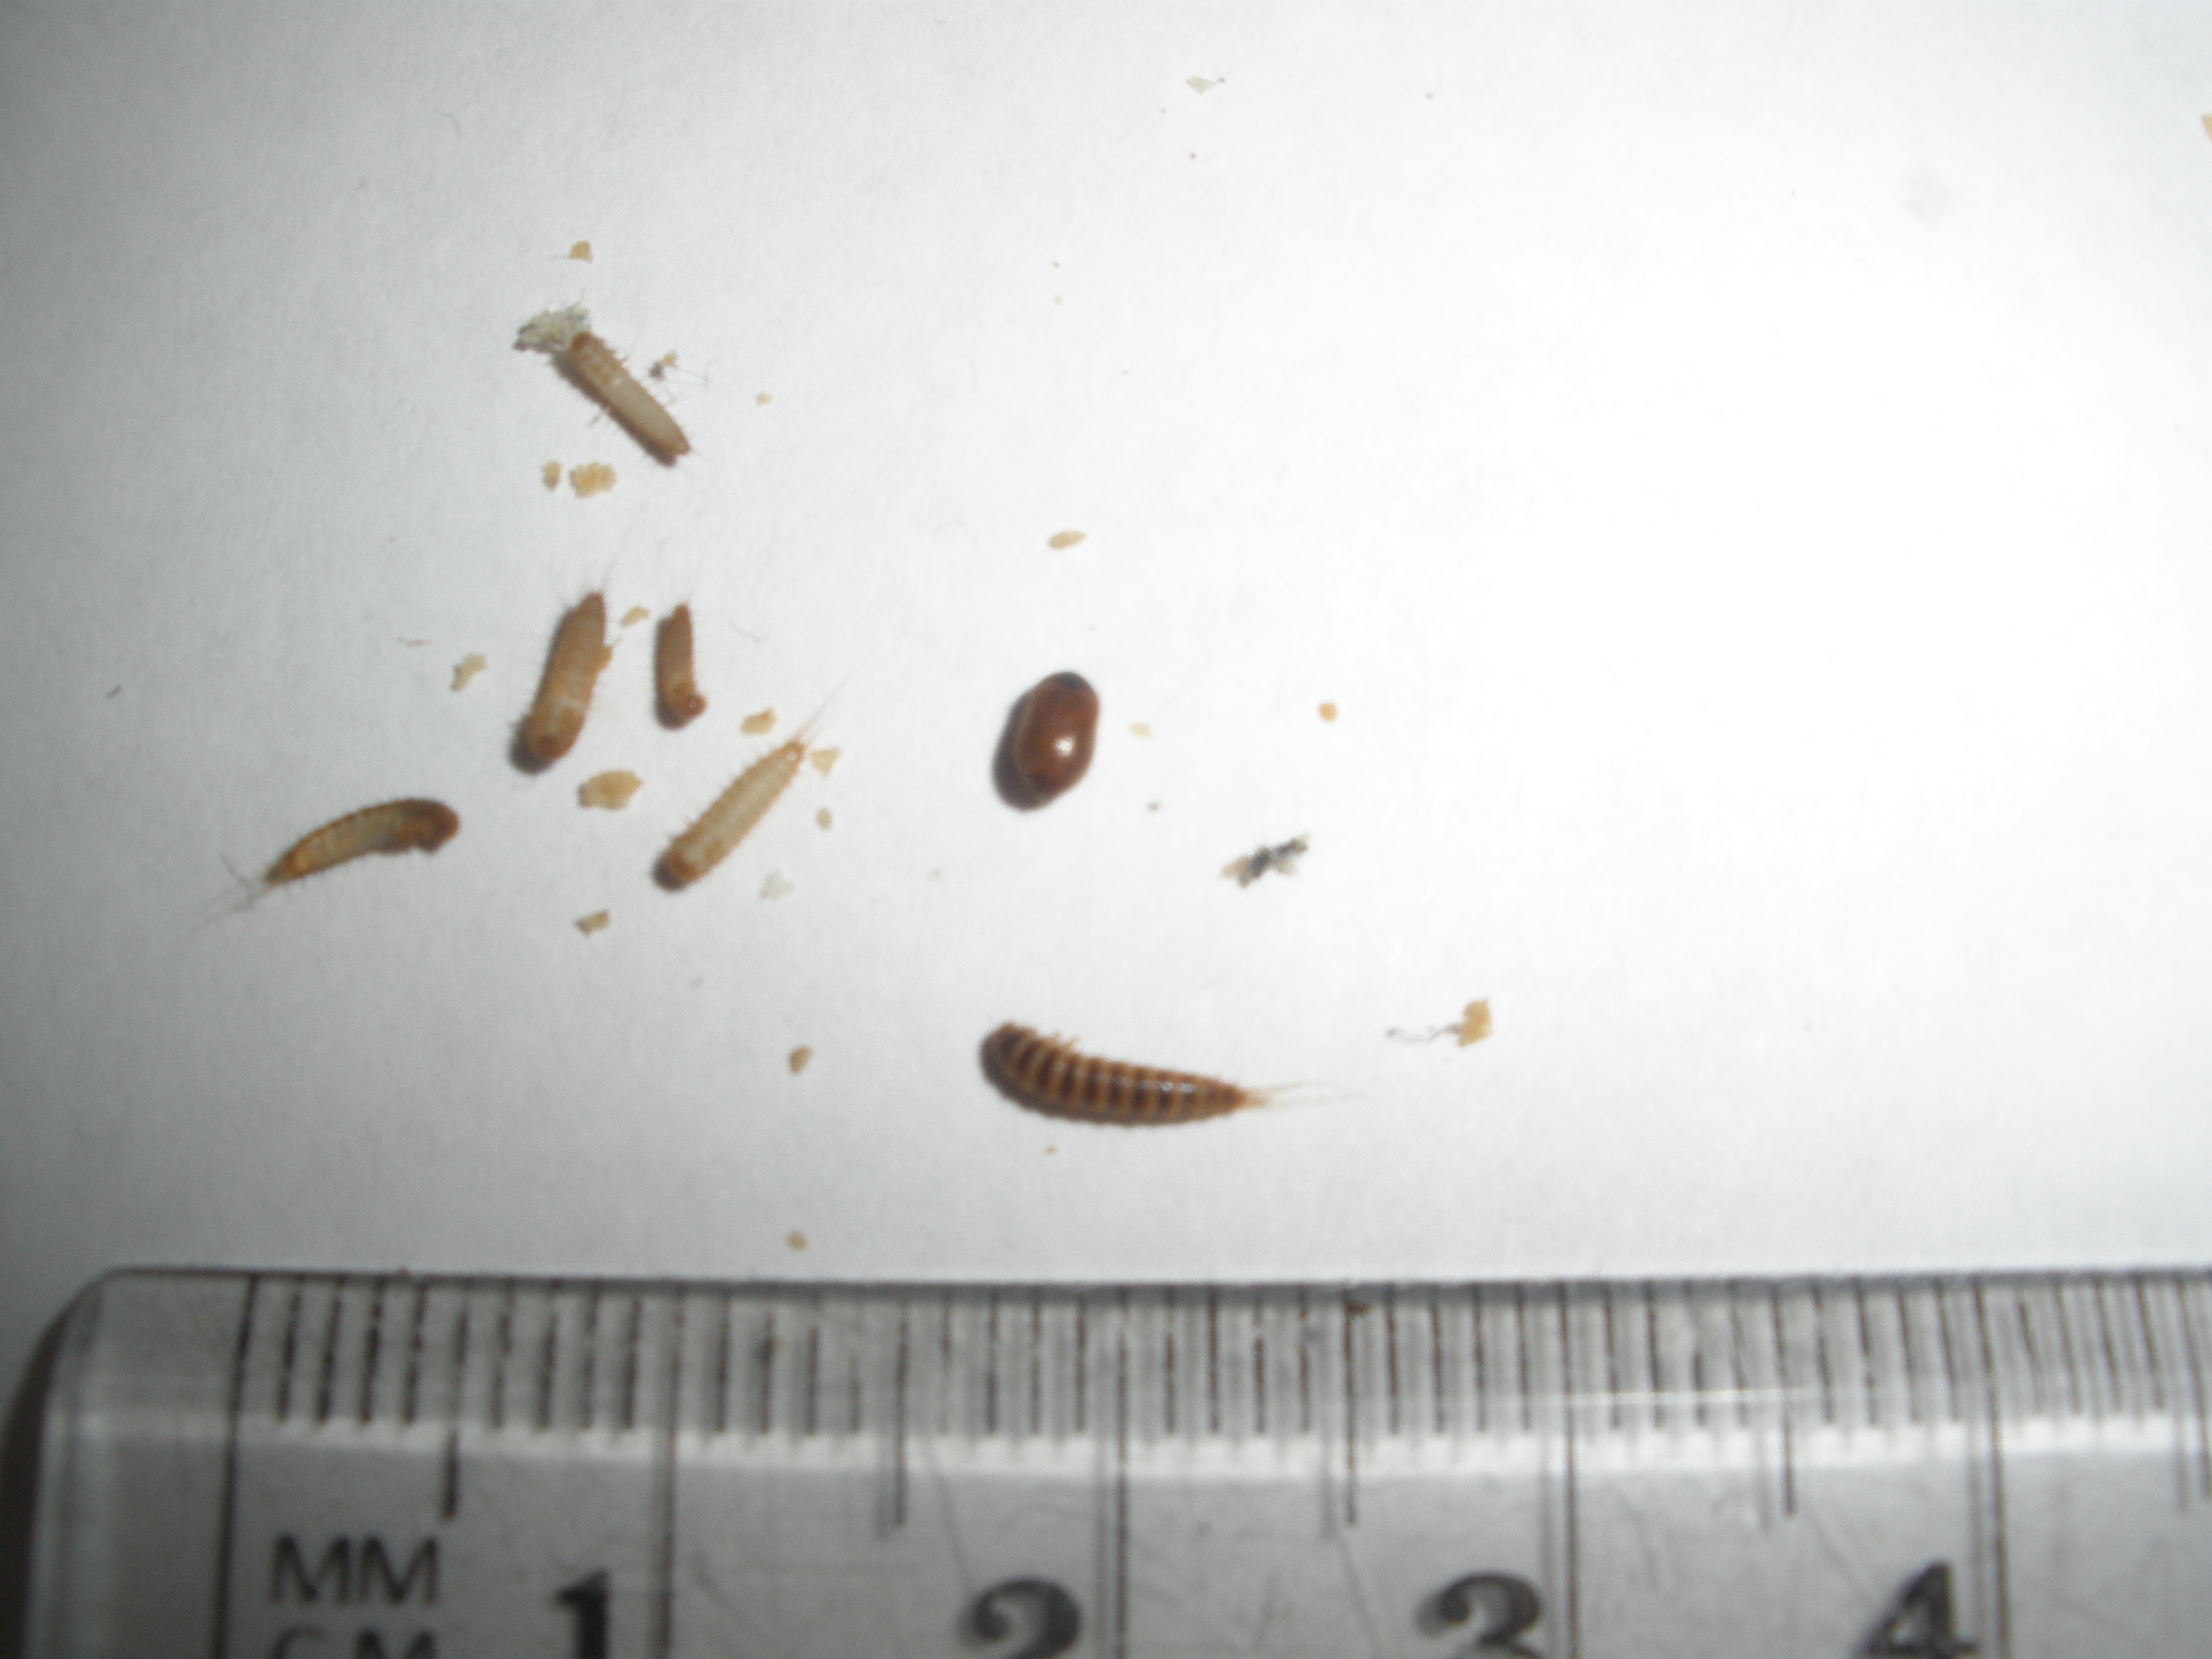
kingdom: Animalia
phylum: Arthropoda
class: Insecta
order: Coleoptera
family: Dermestidae
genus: Attagenus
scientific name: Attagenus smirnovi
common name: Brown carpet beetle
